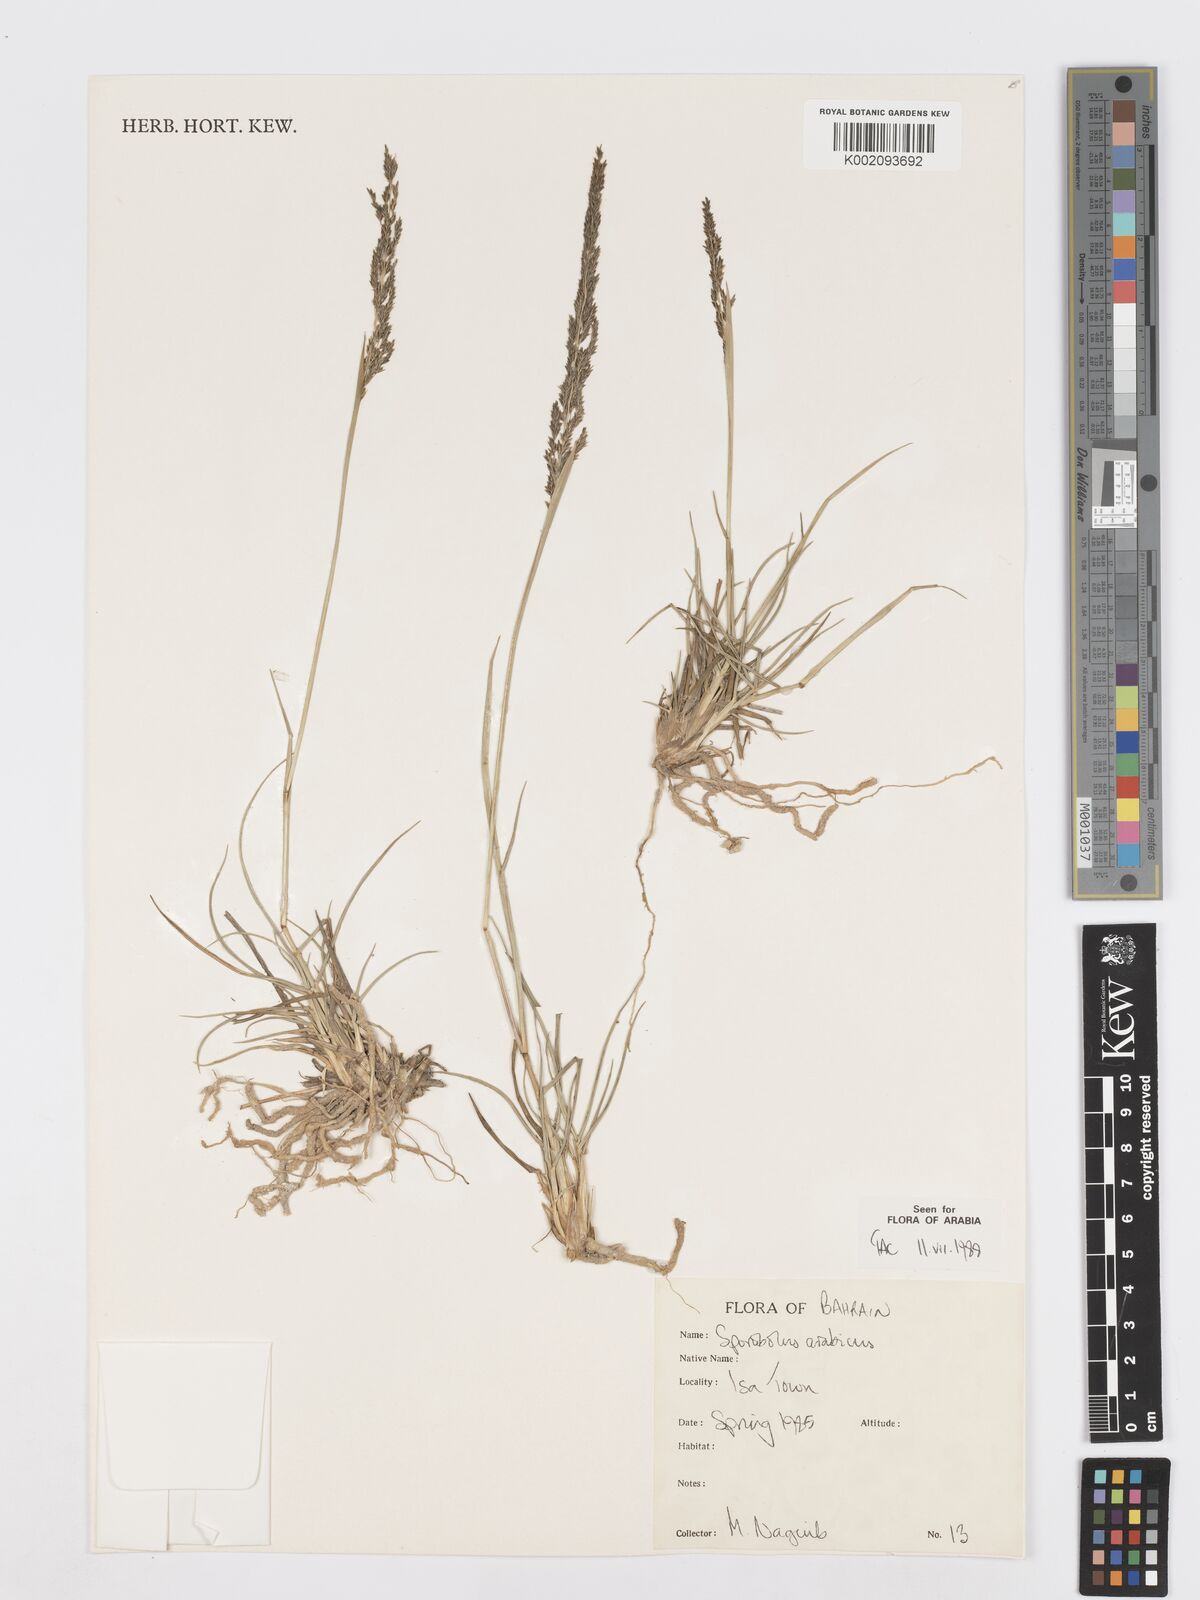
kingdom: Plantae
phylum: Tracheophyta
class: Liliopsida
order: Poales
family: Poaceae
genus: Sporobolus
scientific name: Sporobolus ioclados
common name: Pan dropseed
